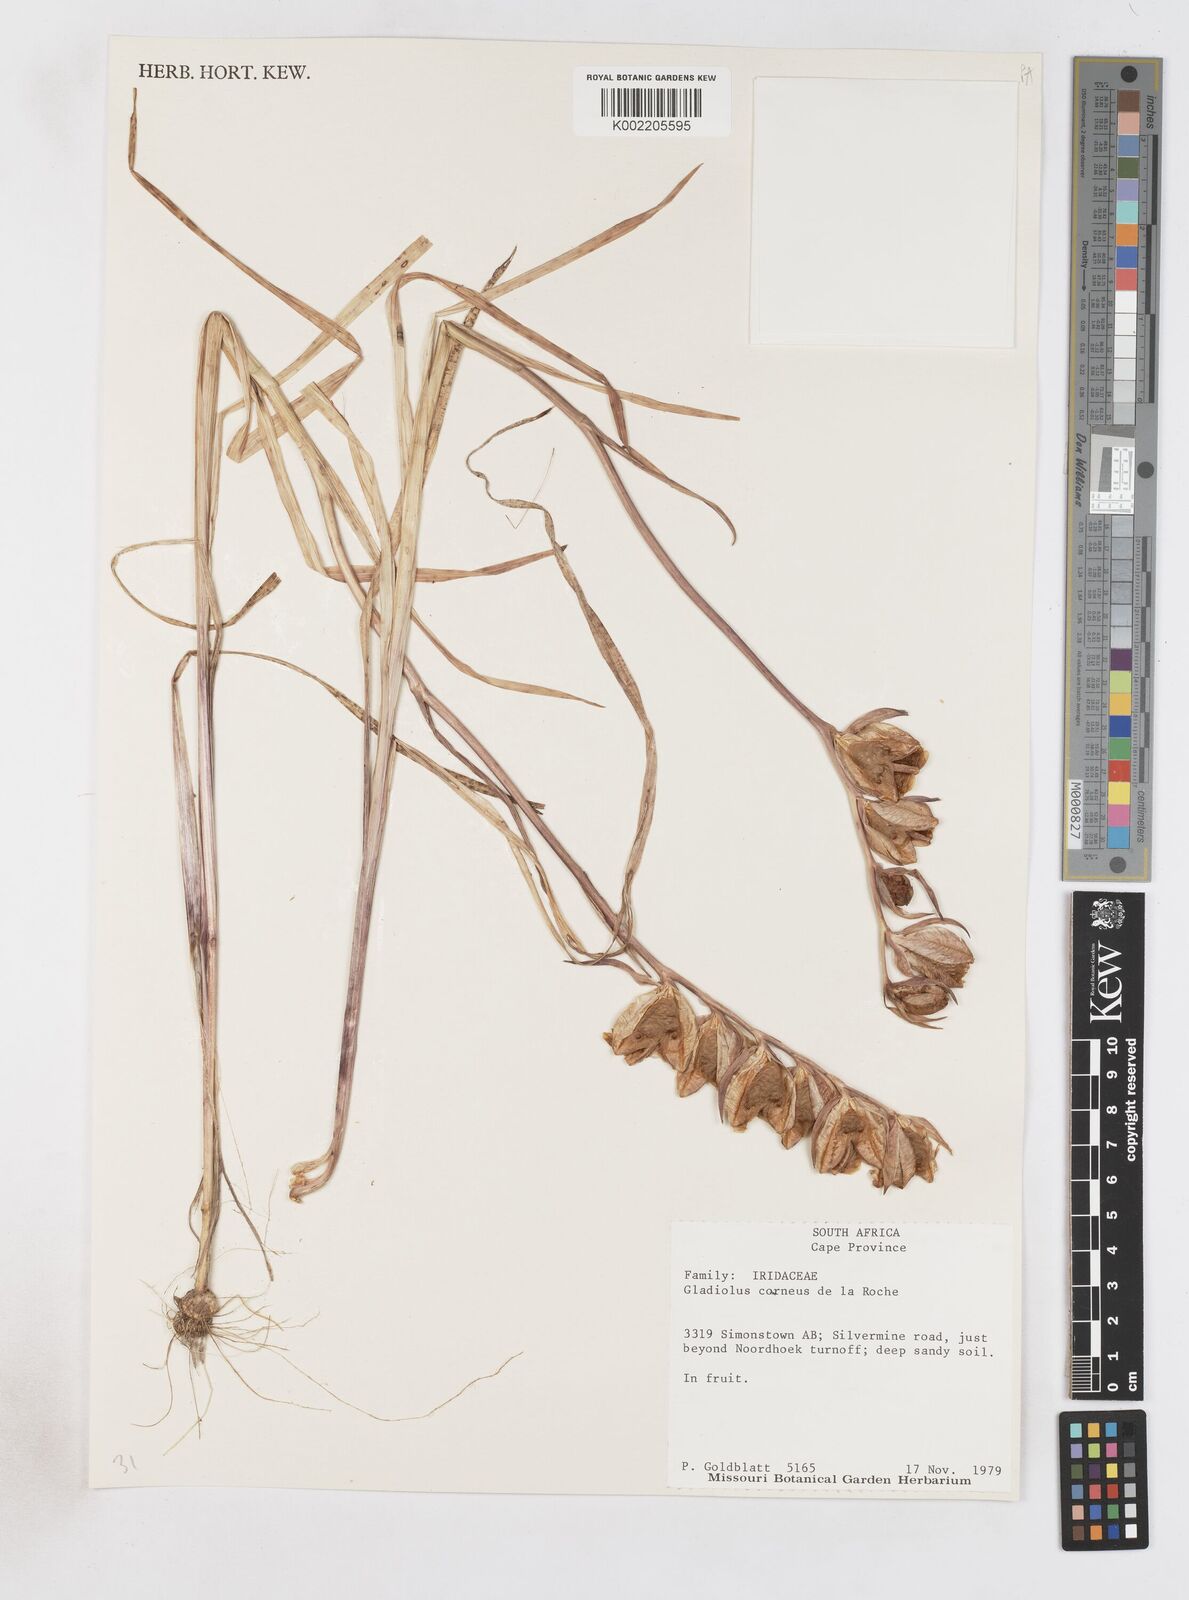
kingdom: Plantae
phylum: Tracheophyta
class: Liliopsida
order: Asparagales
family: Iridaceae
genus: Gladiolus
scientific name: Gladiolus carneus
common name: Painted-lady
